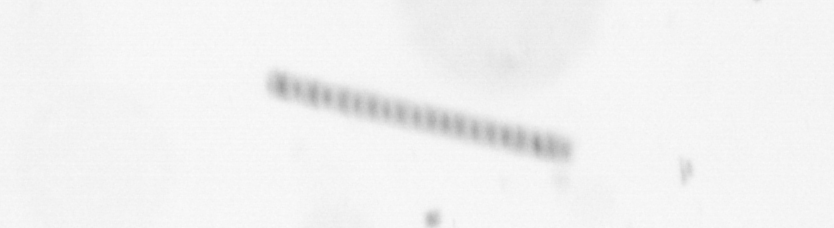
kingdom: Chromista
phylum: Ochrophyta
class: Bacillariophyceae
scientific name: Bacillariophyceae
